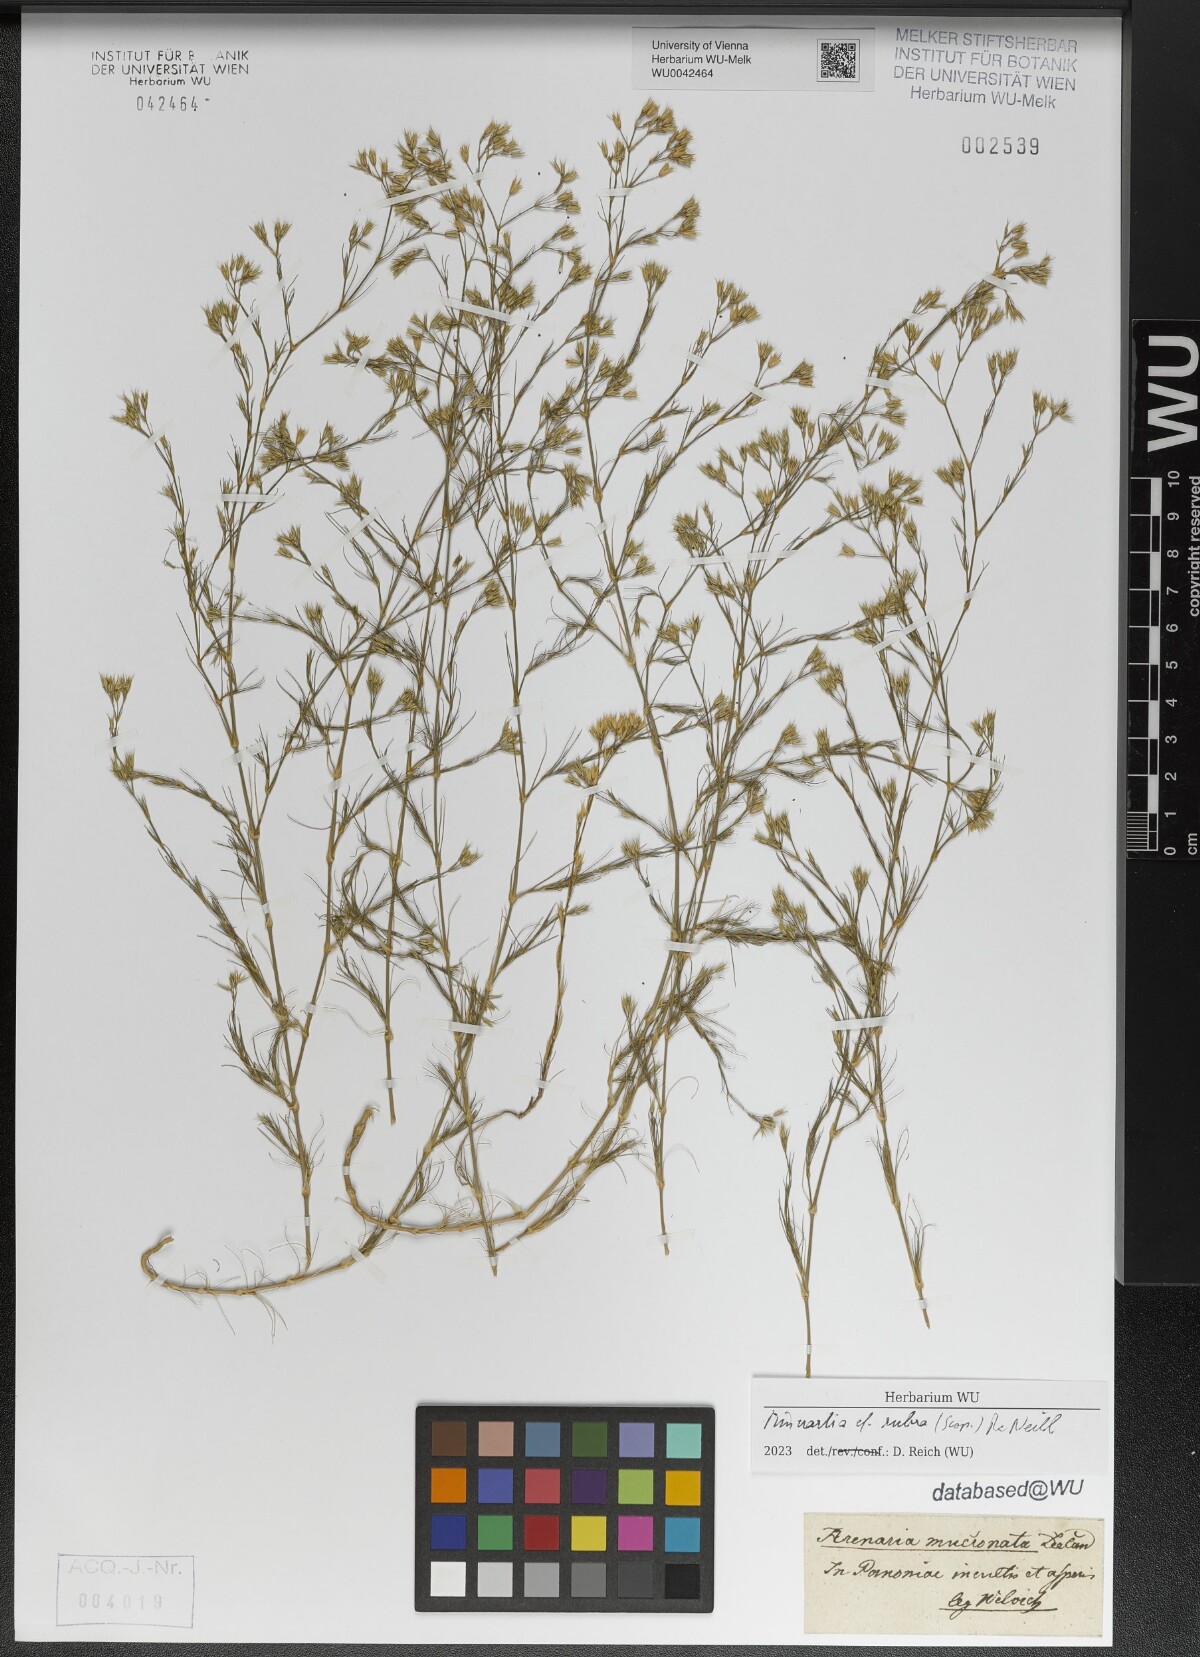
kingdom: Plantae
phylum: Tracheophyta
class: Magnoliopsida
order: Caryophyllales
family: Caryophyllaceae
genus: Minuartia
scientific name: Minuartia mucronata
